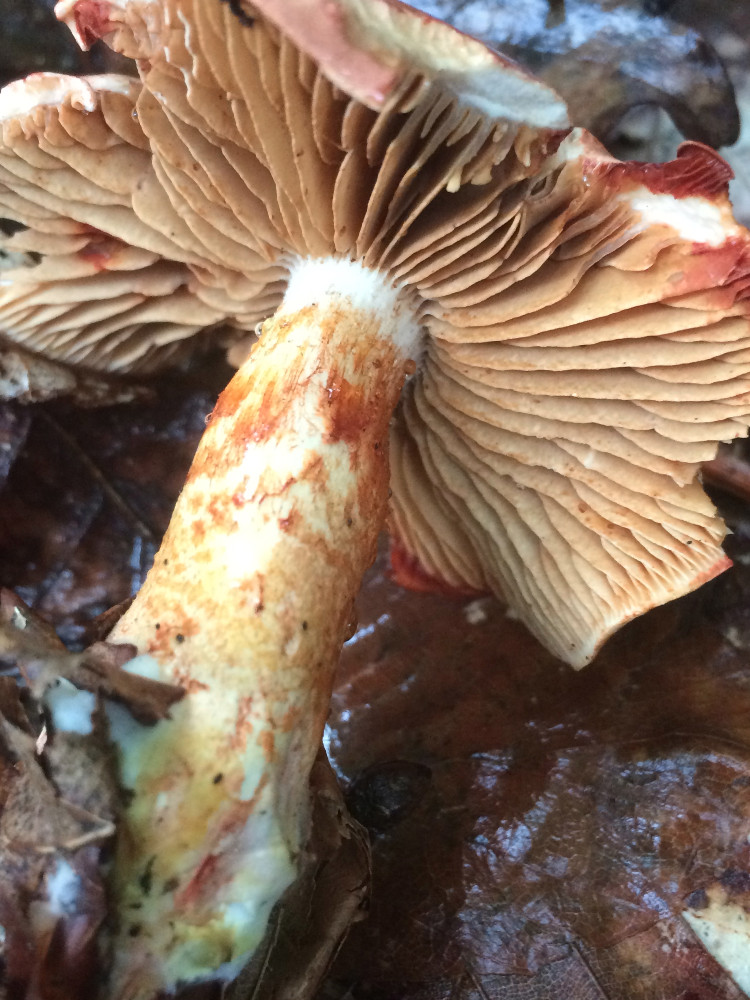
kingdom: Fungi
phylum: Basidiomycota
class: Agaricomycetes
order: Agaricales
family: Cortinariaceae
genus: Cortinarius
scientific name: Cortinarius bolaris
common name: cinnoberskællet slørhat
